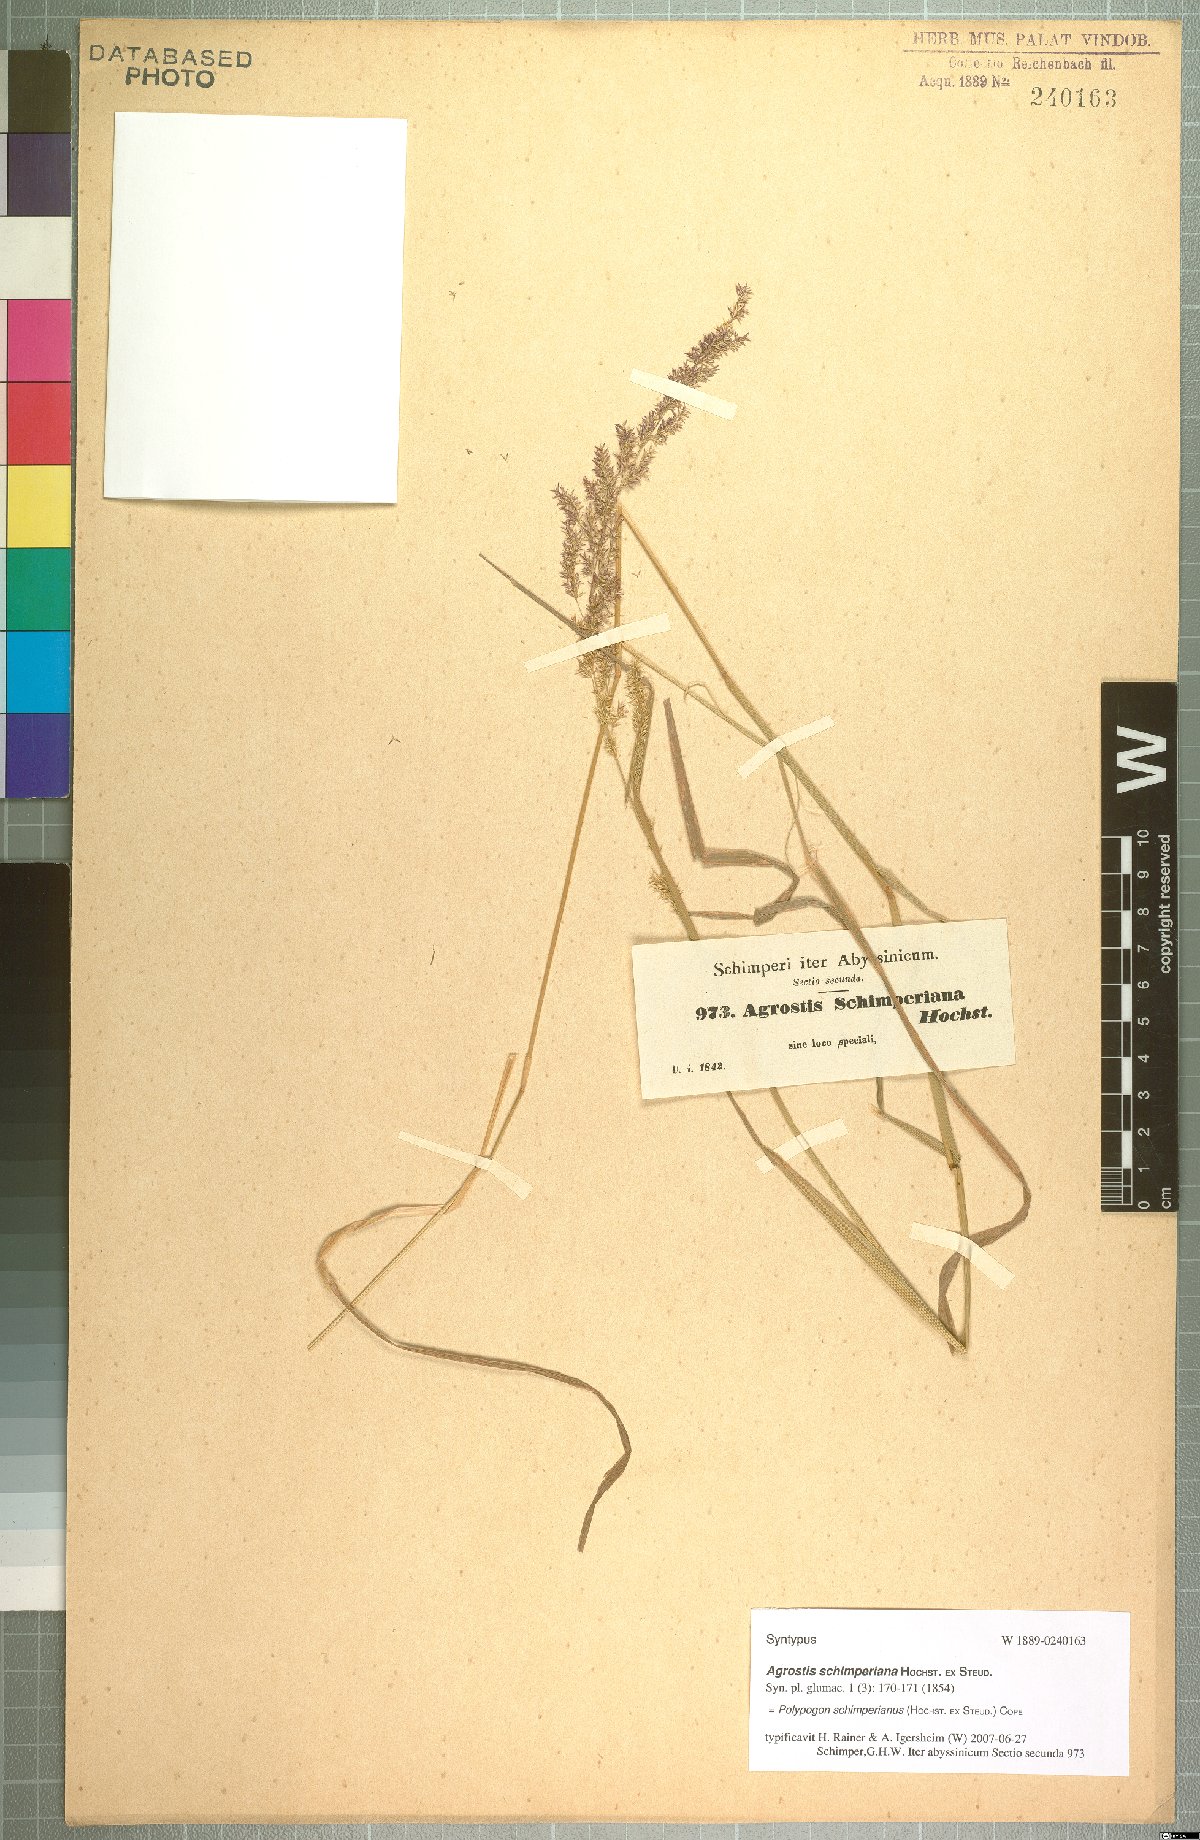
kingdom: Plantae
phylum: Tracheophyta
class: Liliopsida
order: Poales
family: Poaceae
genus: Polypogon
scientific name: Polypogon schimperianus
